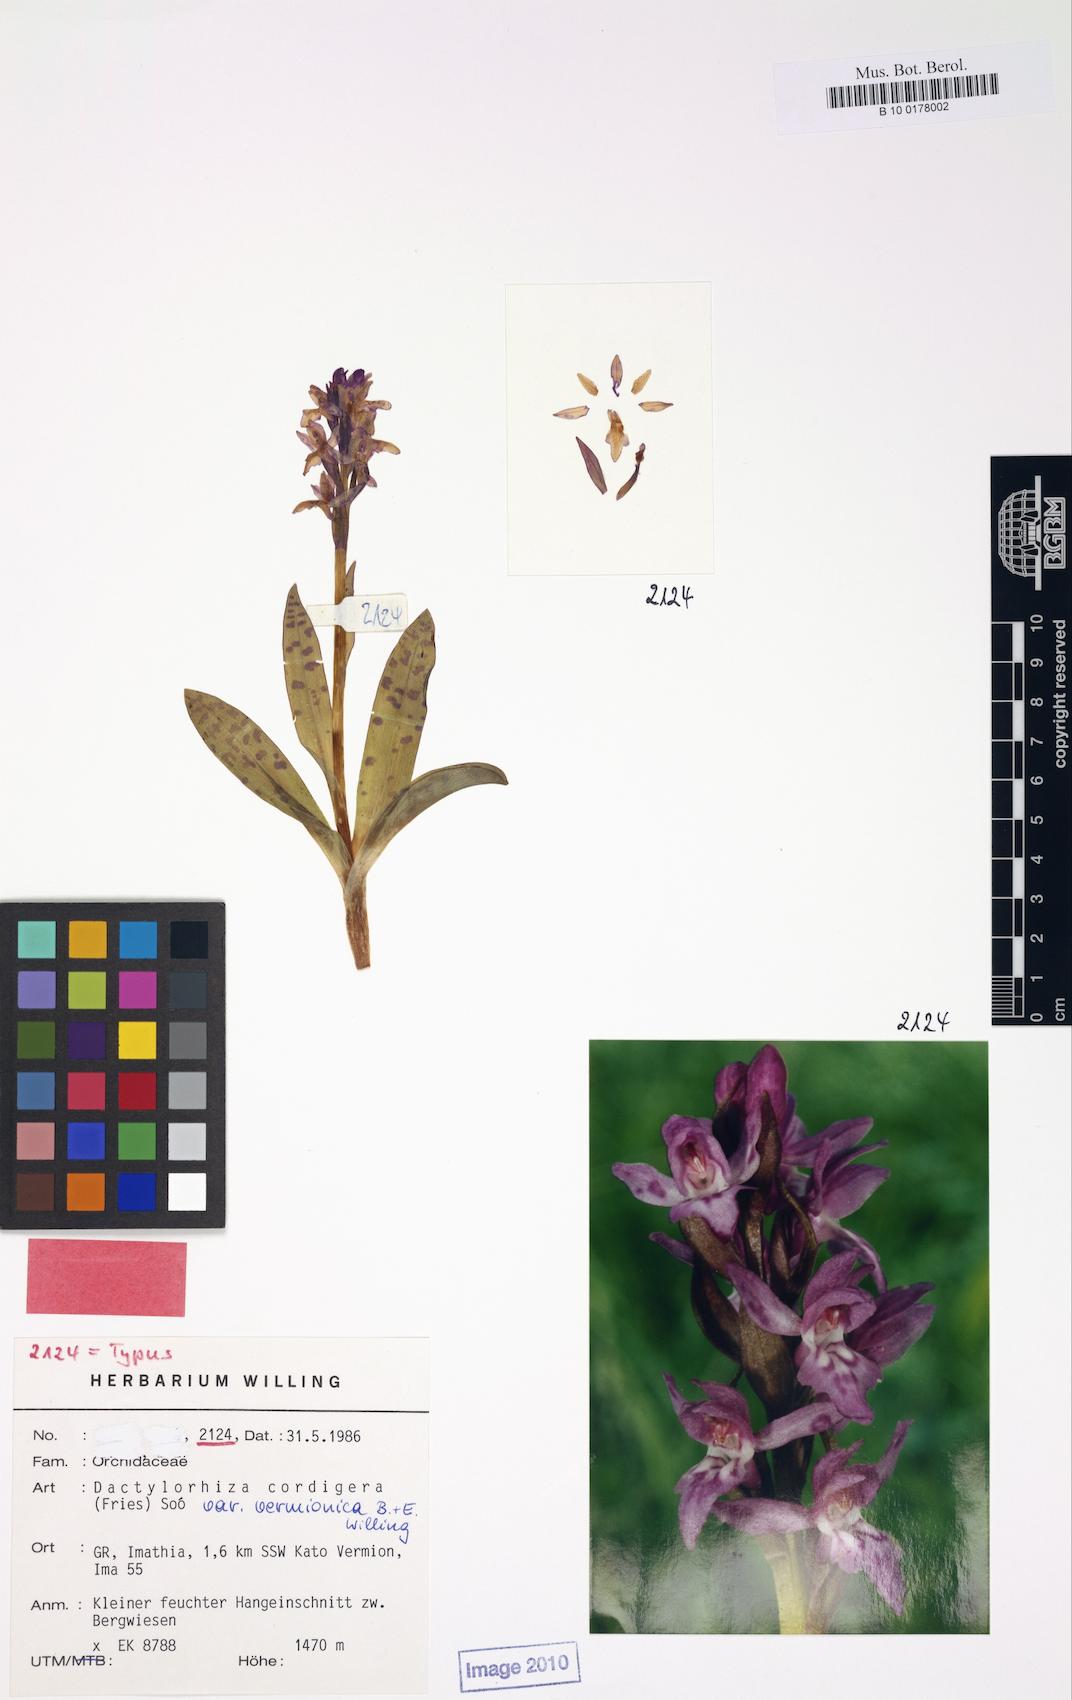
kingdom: Plantae
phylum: Tracheophyta
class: Liliopsida
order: Asparagales
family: Orchidaceae
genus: Dactylorhiza
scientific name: Dactylorhiza majalis
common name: Marsh orchid
